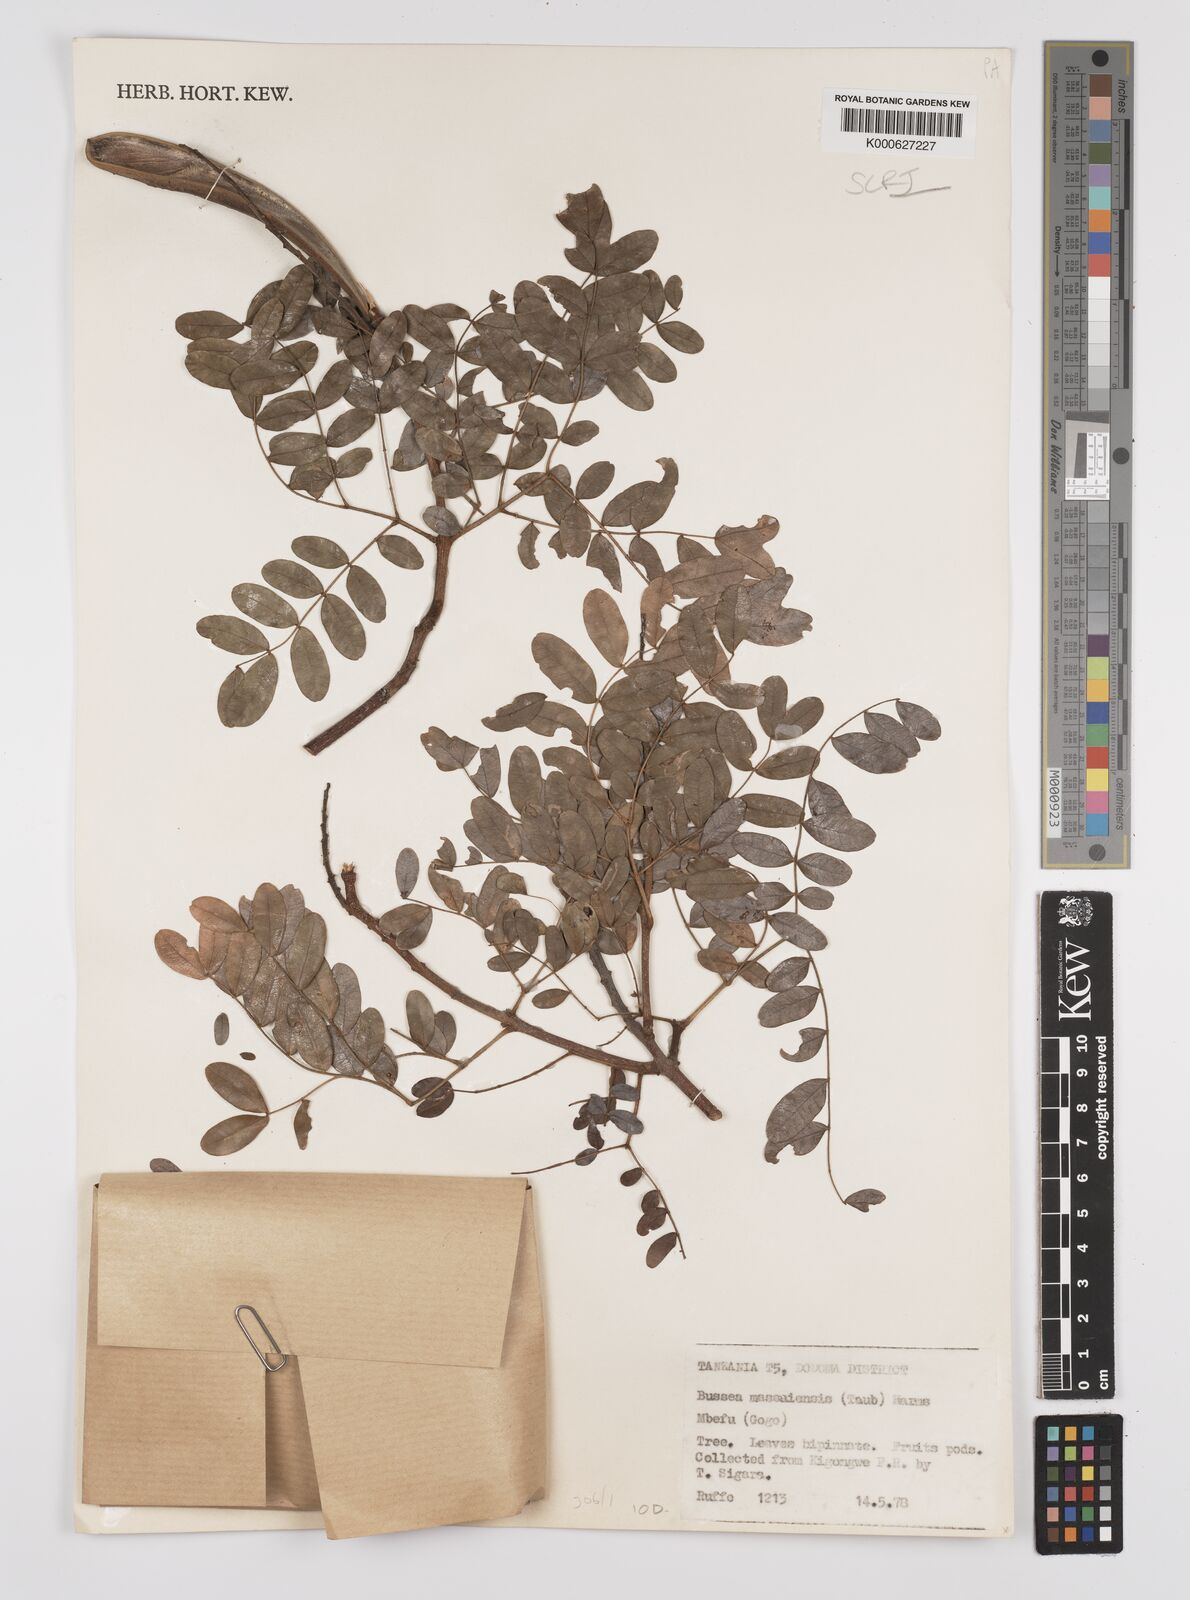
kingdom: Plantae
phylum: Tracheophyta
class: Magnoliopsida
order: Fabales
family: Fabaceae
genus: Bussea
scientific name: Bussea massaiensis
